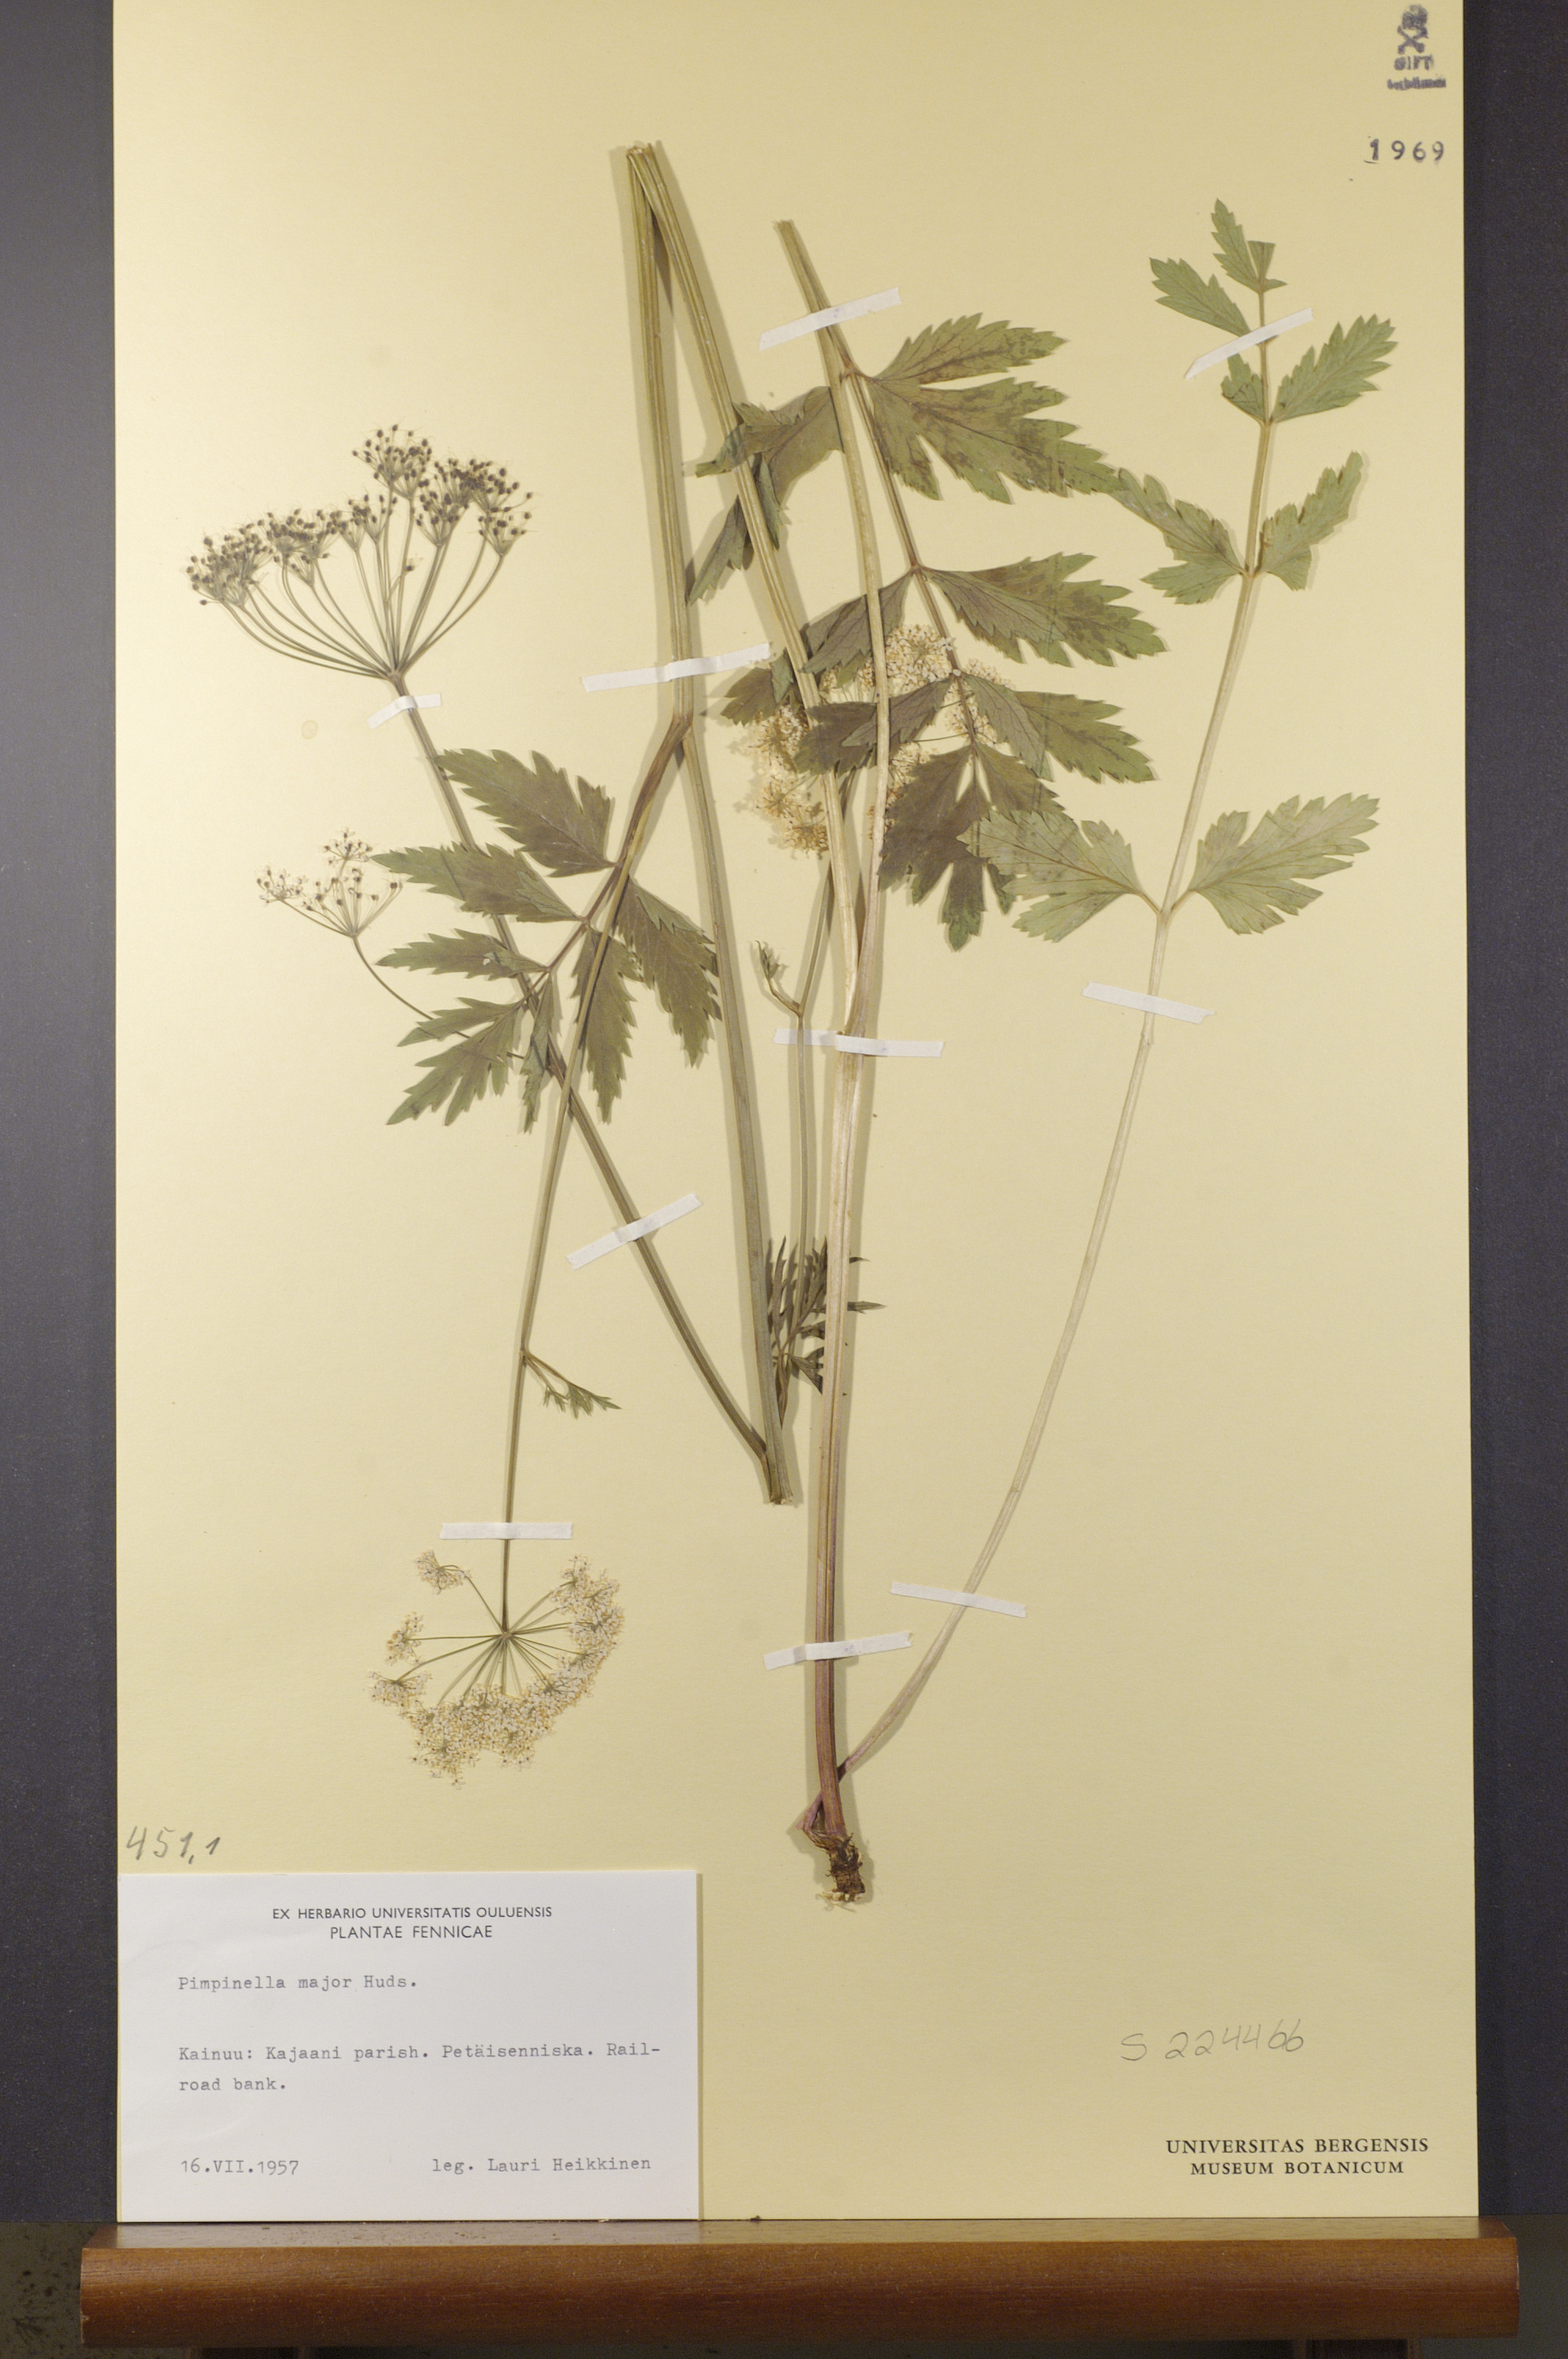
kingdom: Plantae
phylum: Tracheophyta
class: Magnoliopsida
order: Apiales
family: Apiaceae
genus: Pimpinella
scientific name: Pimpinella major
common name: Greater burnet-saxifrage
